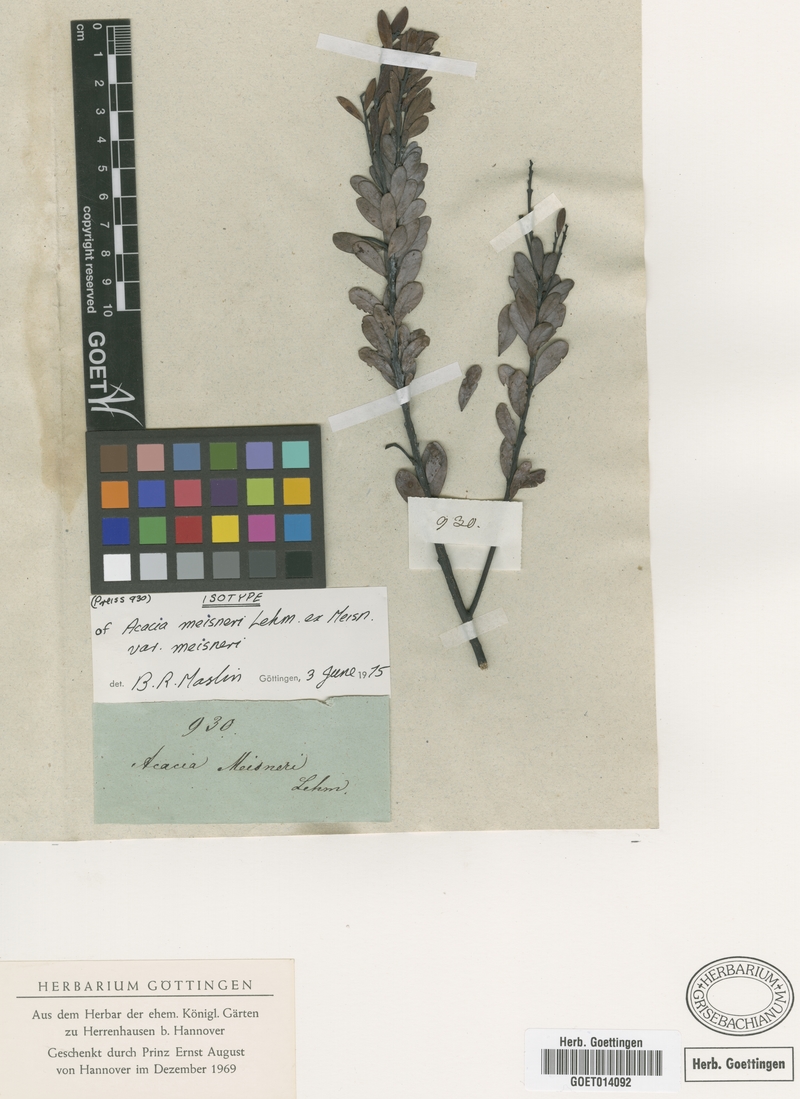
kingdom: Plantae
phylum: Tracheophyta
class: Magnoliopsida
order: Fabales
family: Fabaceae
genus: Acacia
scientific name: Acacia meisneri
